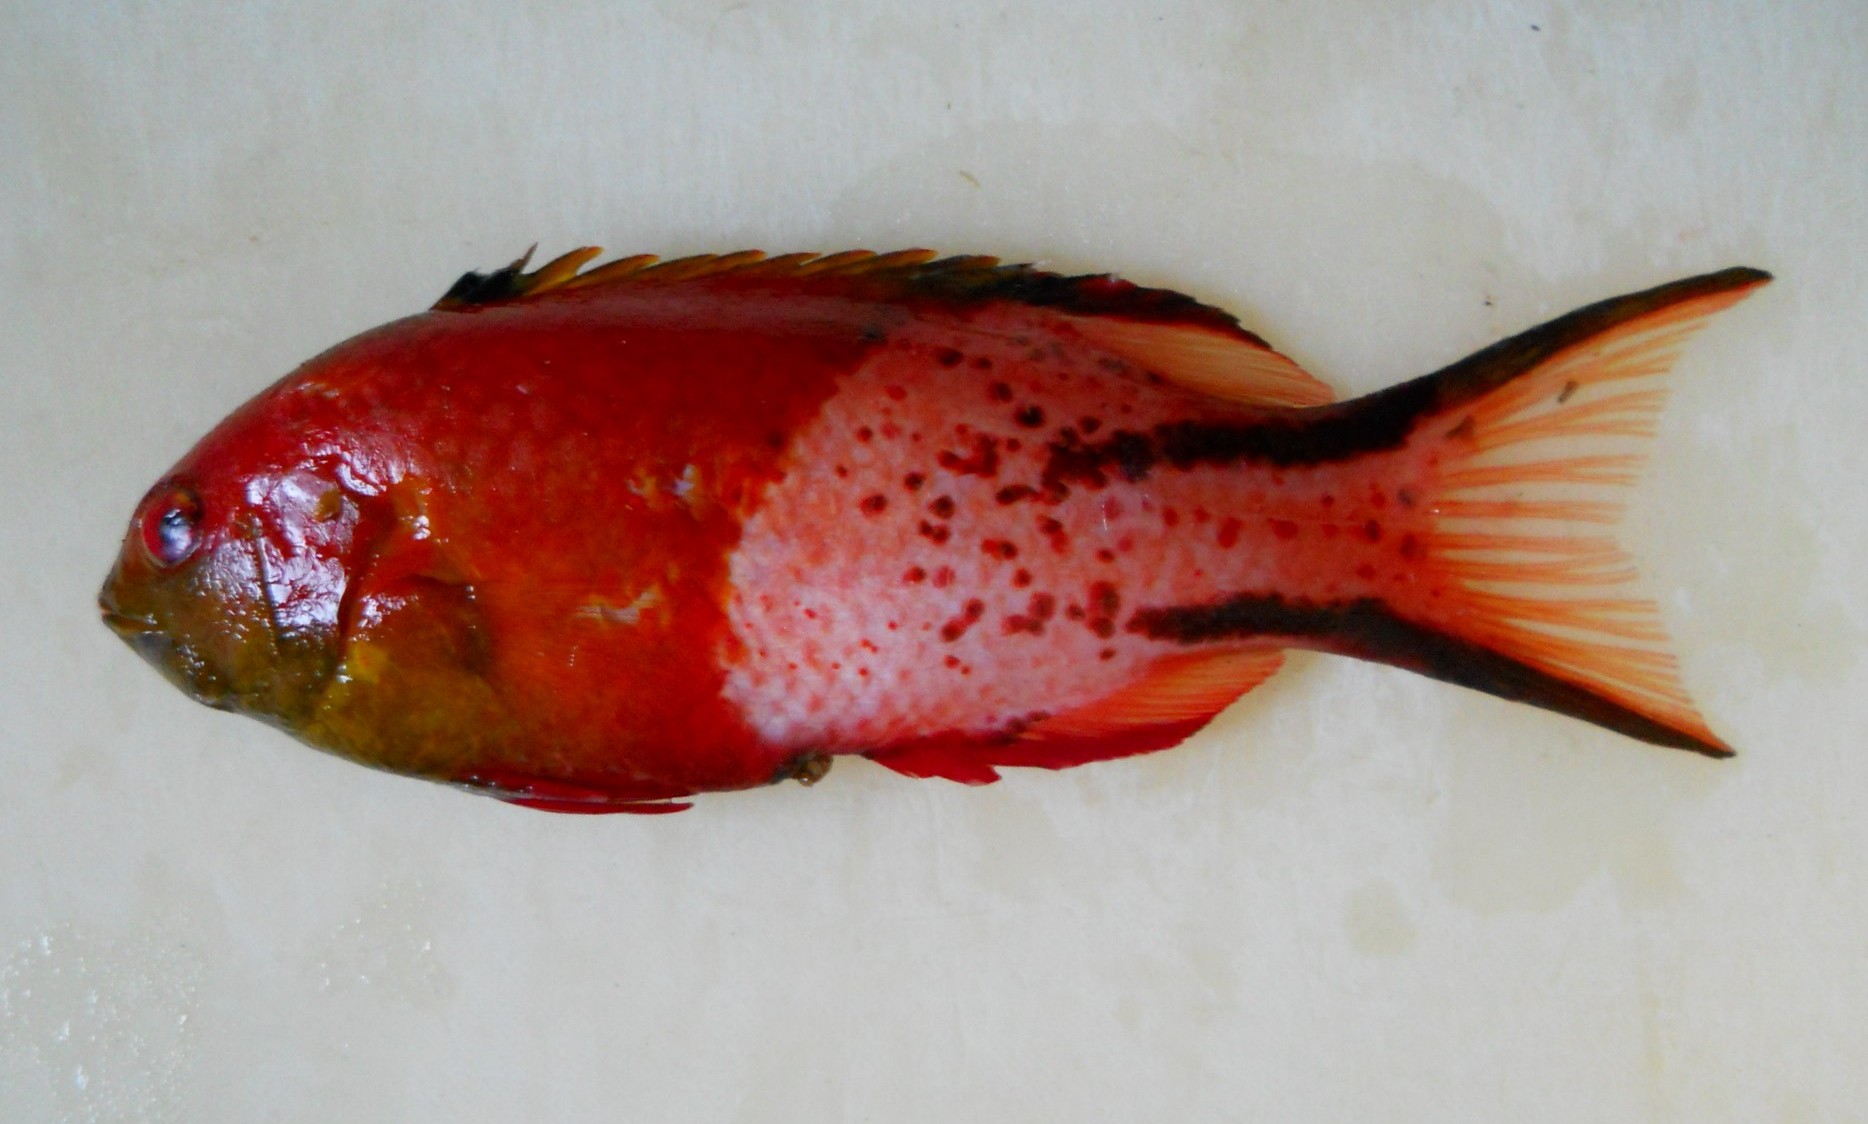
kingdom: Animalia
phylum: Chordata
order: Perciformes
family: Labridae
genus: Bodianus
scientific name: Bodianus anthioides
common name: Lyretail hogfish
